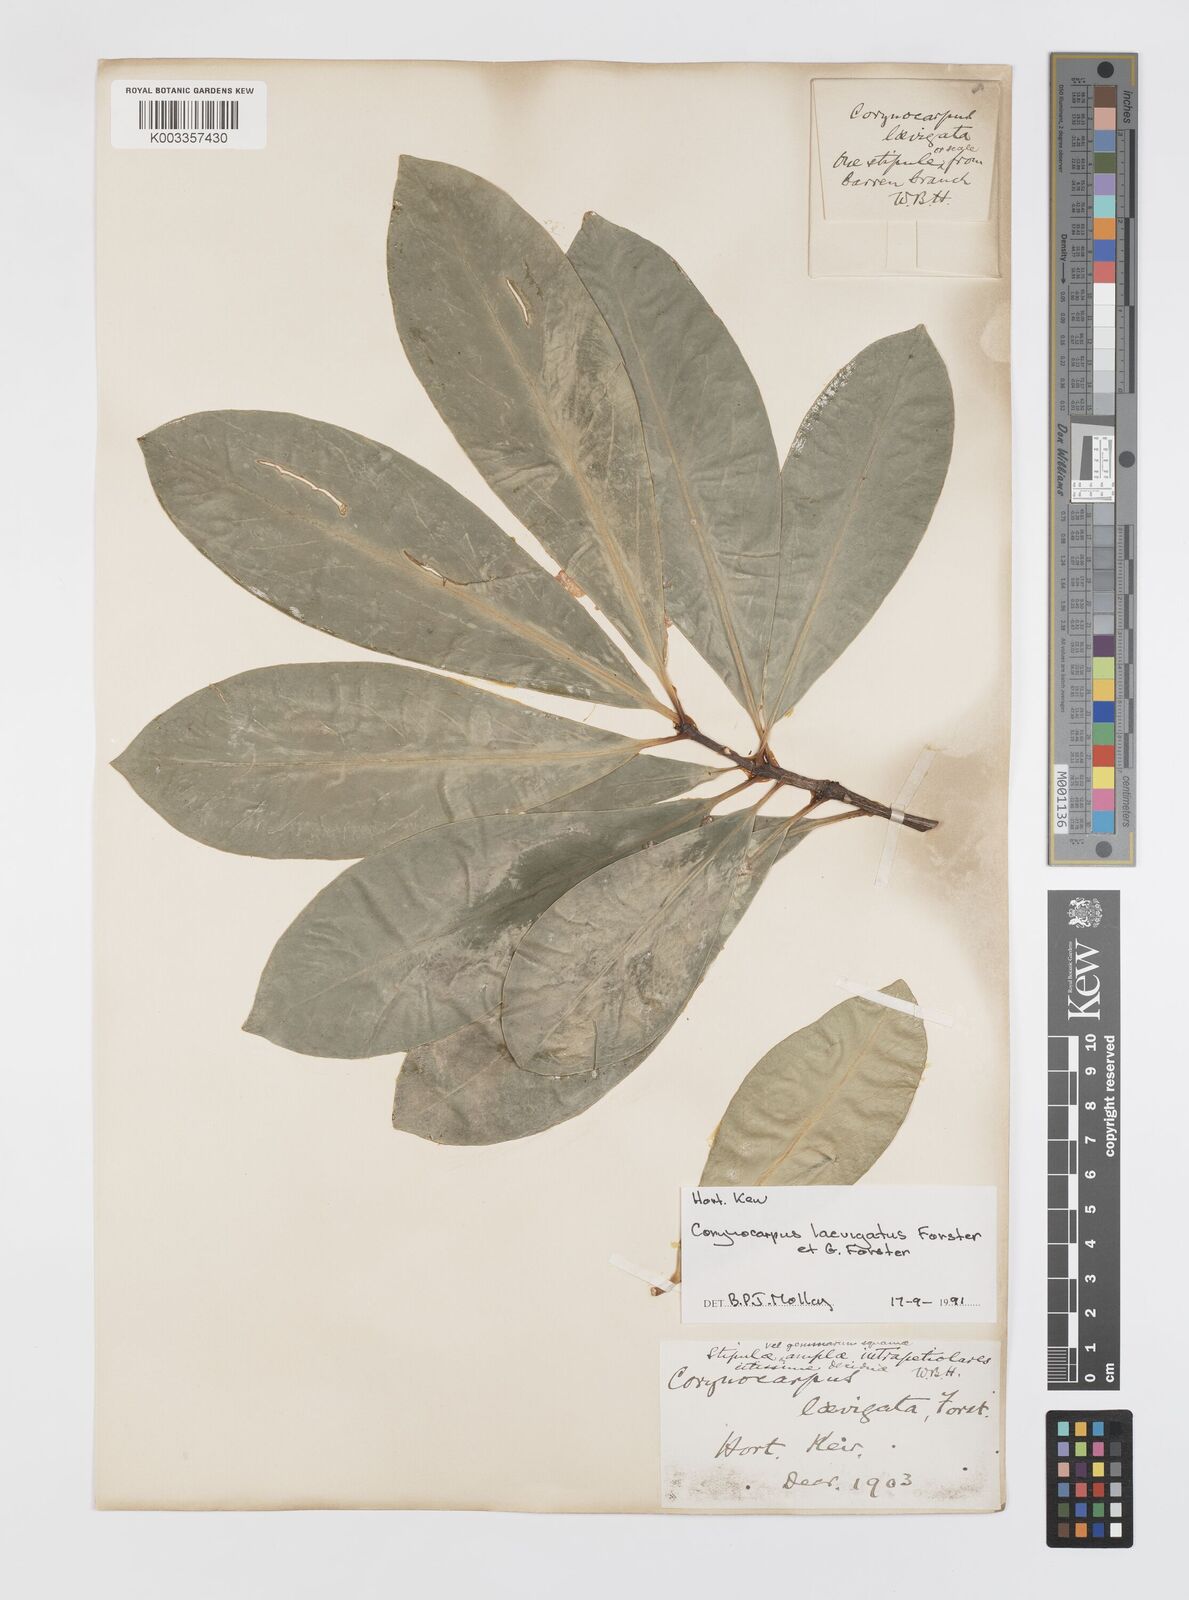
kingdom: Plantae
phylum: Tracheophyta
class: Magnoliopsida
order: Cucurbitales
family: Corynocarpaceae
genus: Corynocarpus
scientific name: Corynocarpus laevigatus
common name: New zealand laurel
